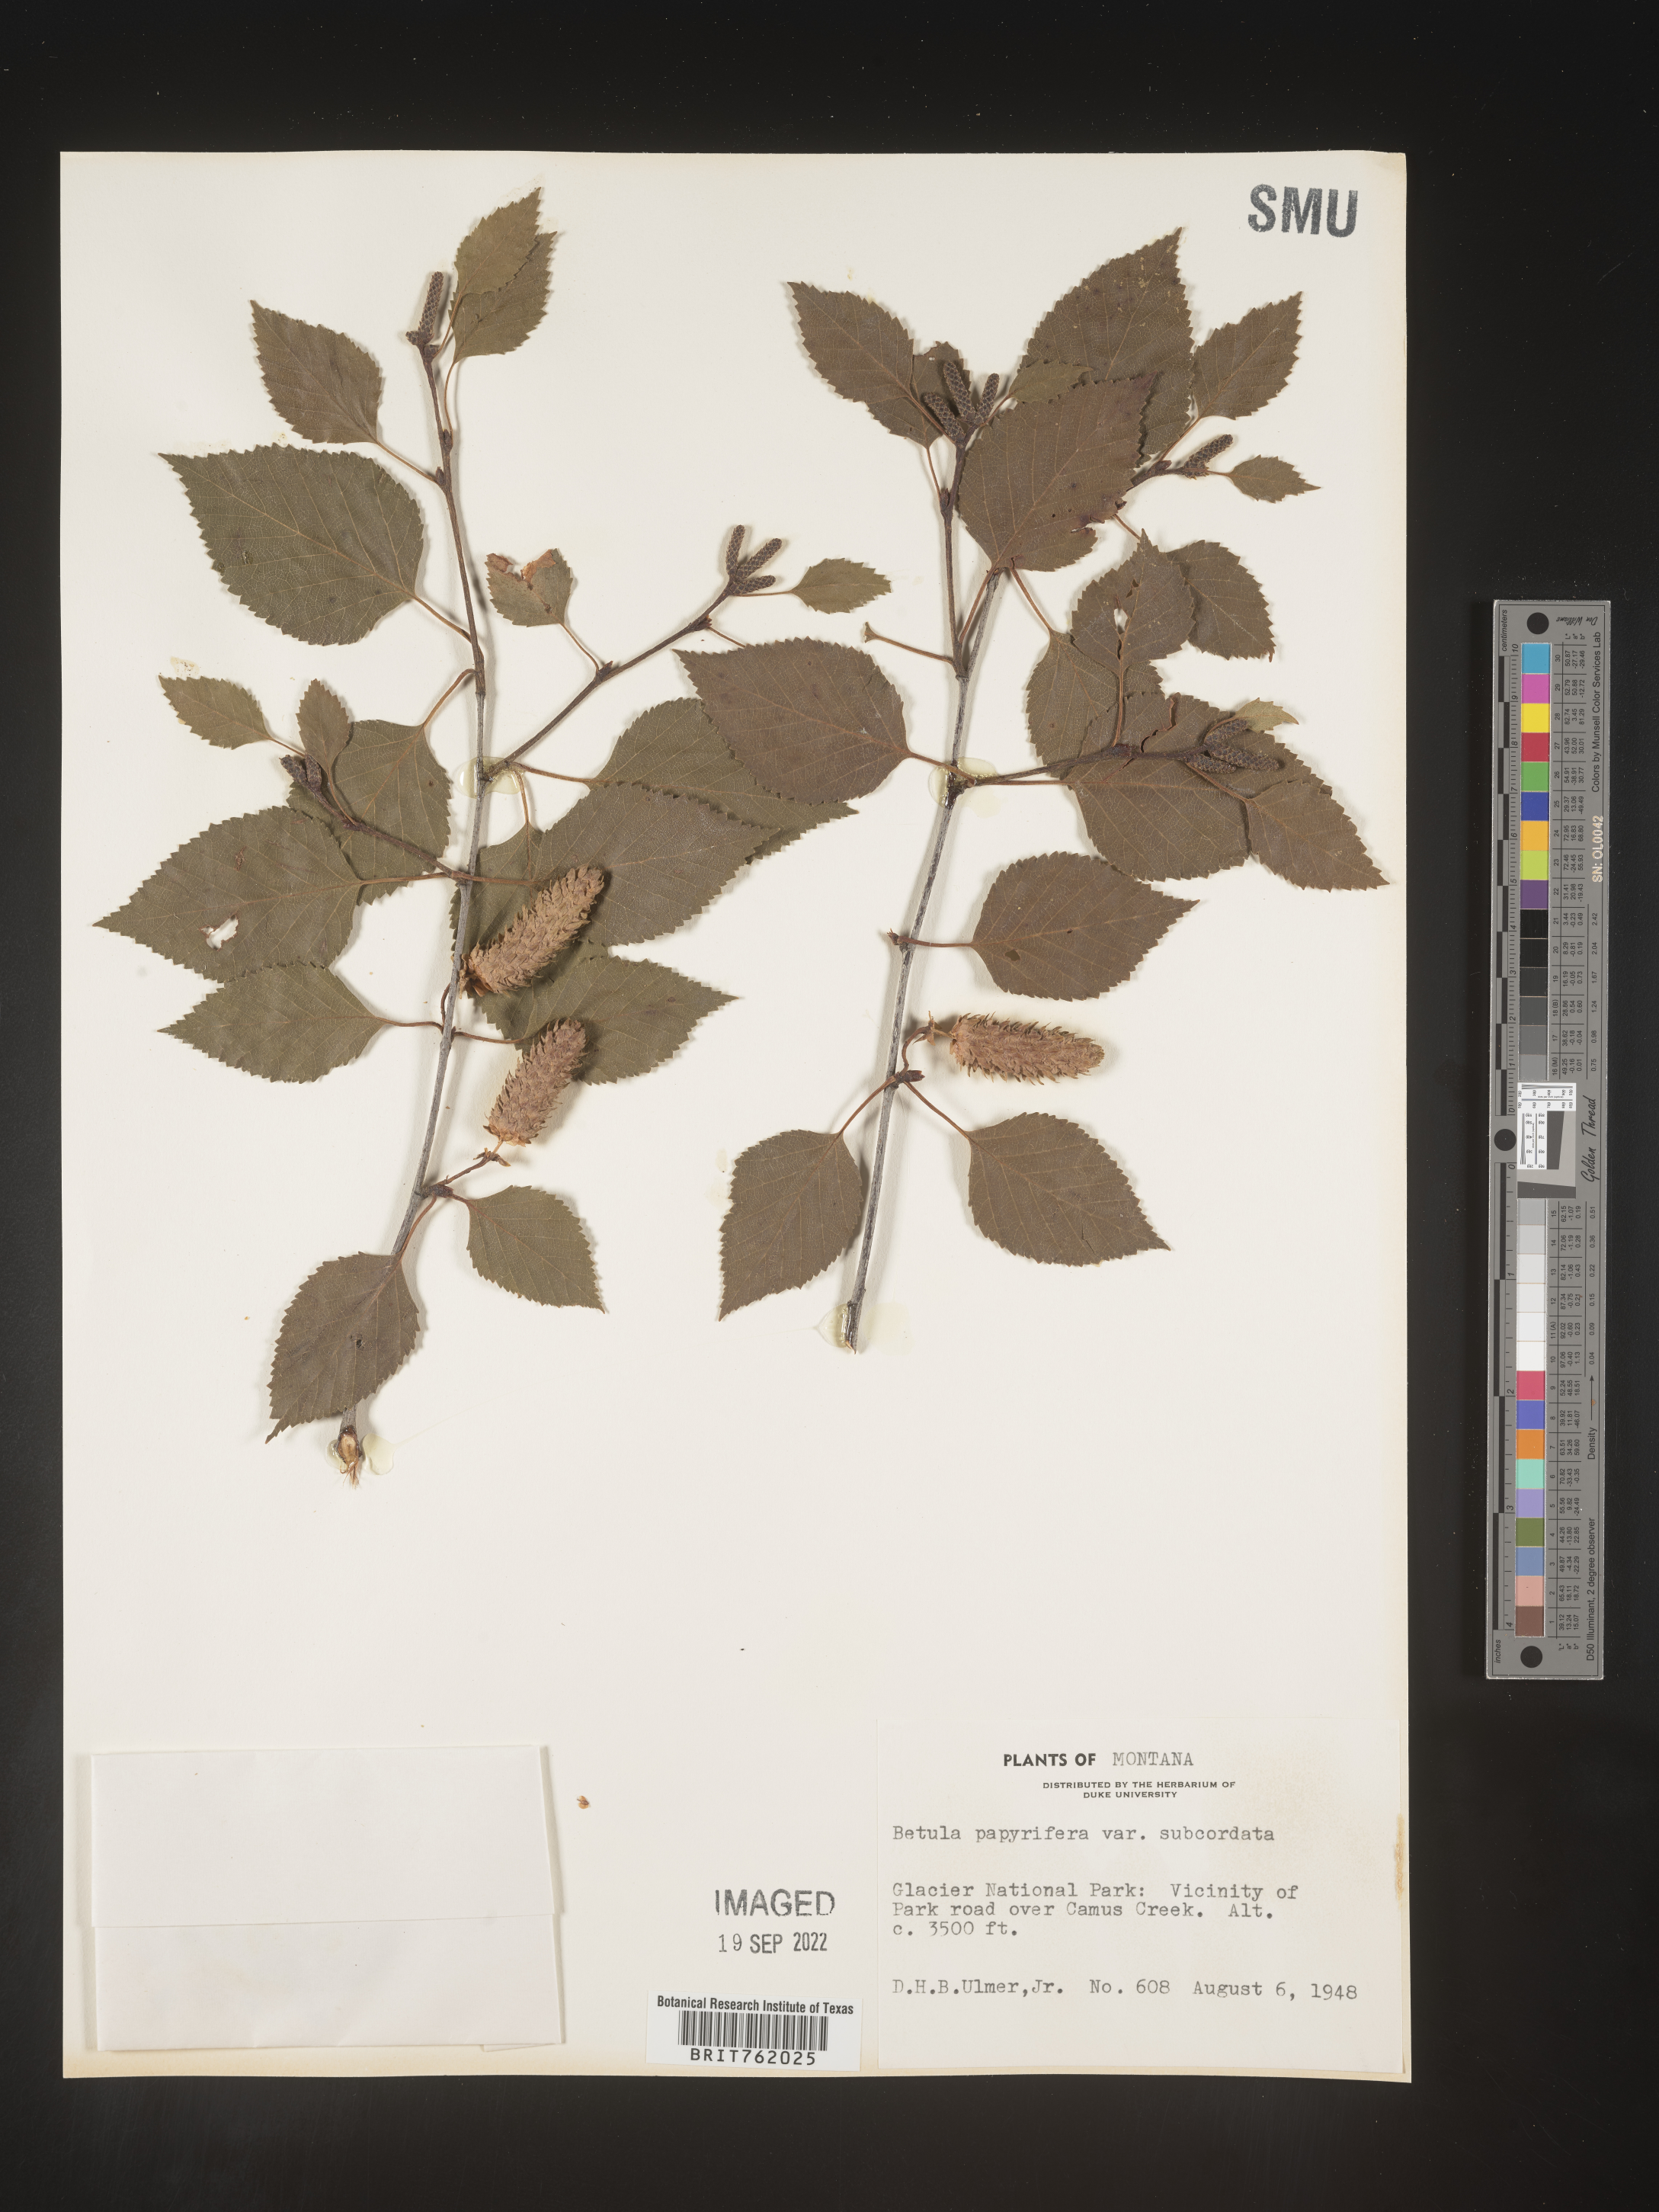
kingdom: Plantae
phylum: Tracheophyta
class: Magnoliopsida
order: Fagales
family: Betulaceae
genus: Betula
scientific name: Betula papyrifera
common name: Paper birch
